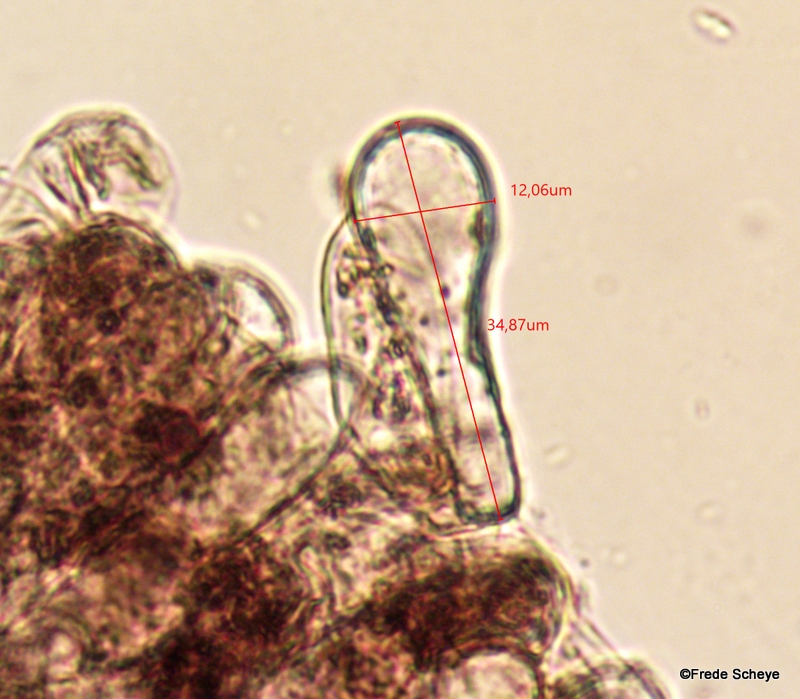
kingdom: Fungi
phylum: Basidiomycota
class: Agaricomycetes
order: Agaricales
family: Agaricaceae
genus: Agaricus
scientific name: Agaricus bisporus
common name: have-champignon
